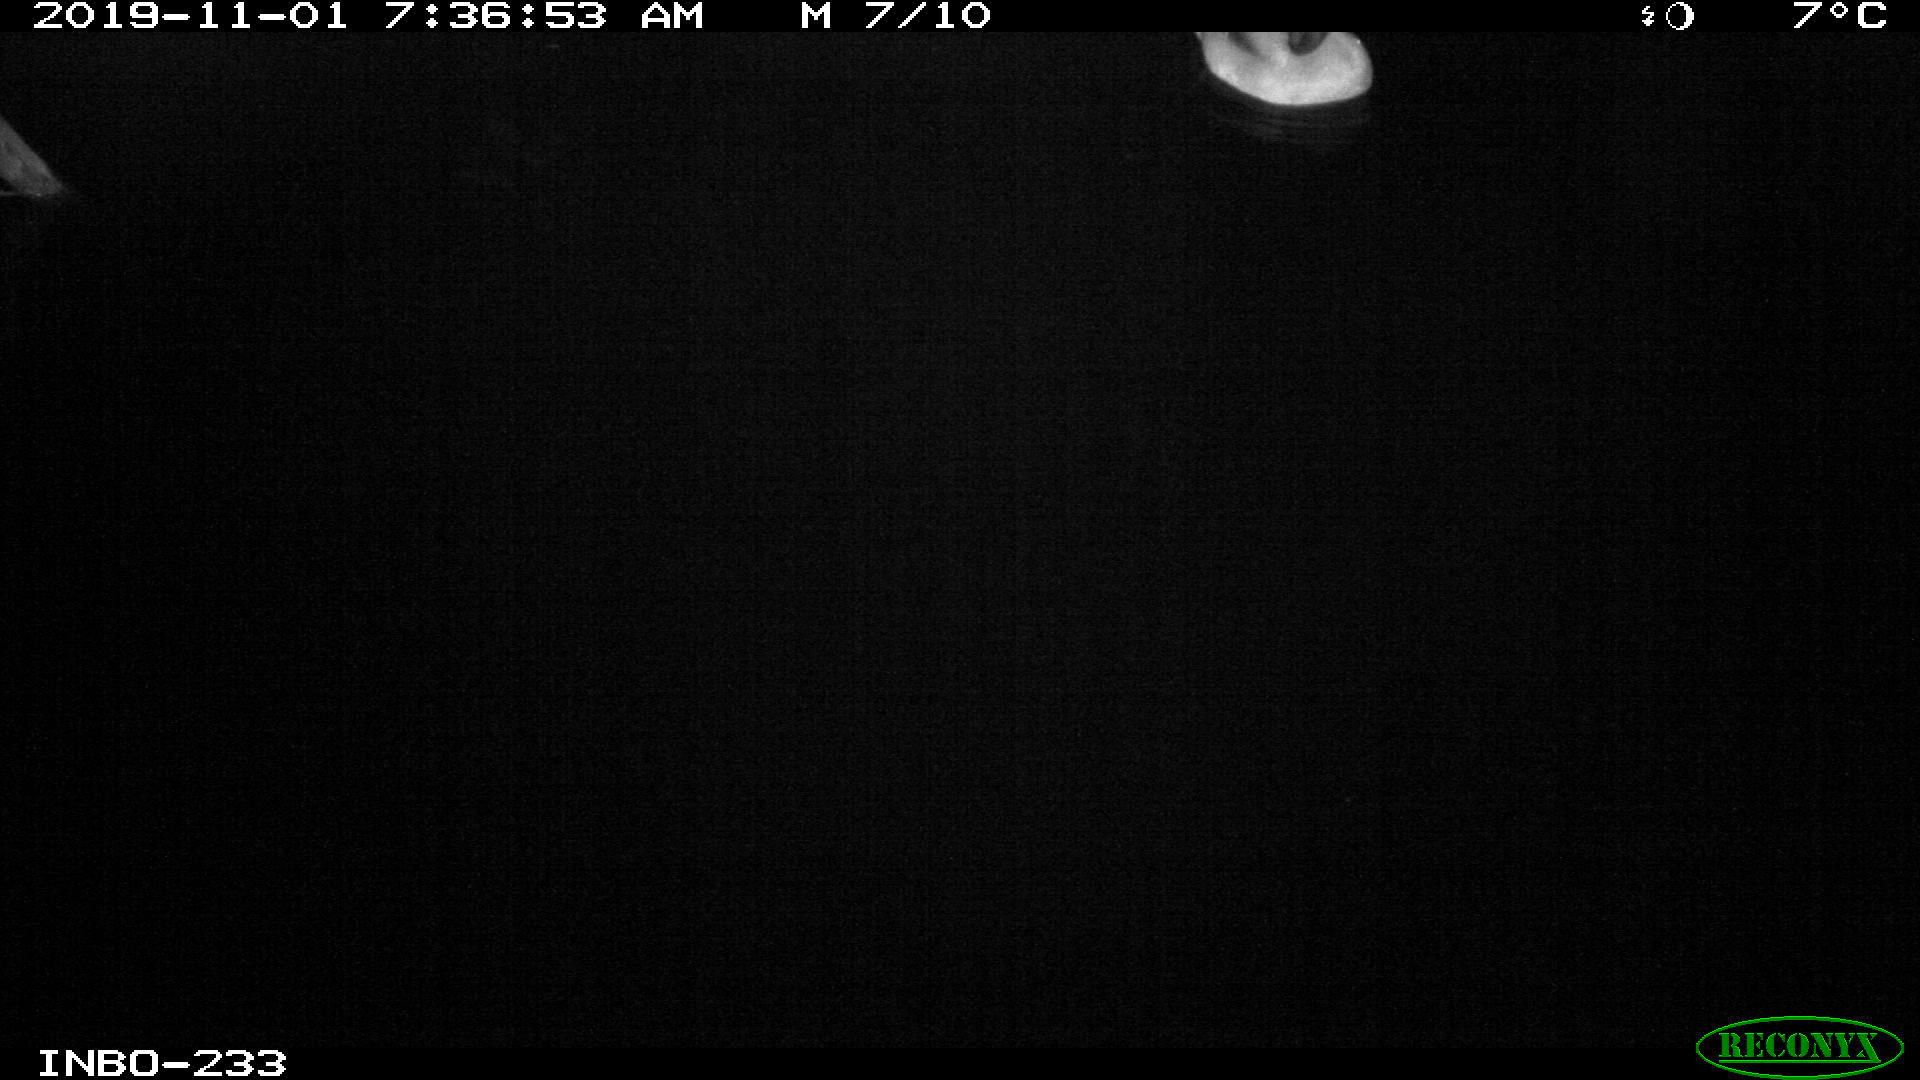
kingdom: Animalia
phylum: Chordata
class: Aves
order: Anseriformes
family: Anatidae
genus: Anas
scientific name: Anas platyrhynchos
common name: Mallard
